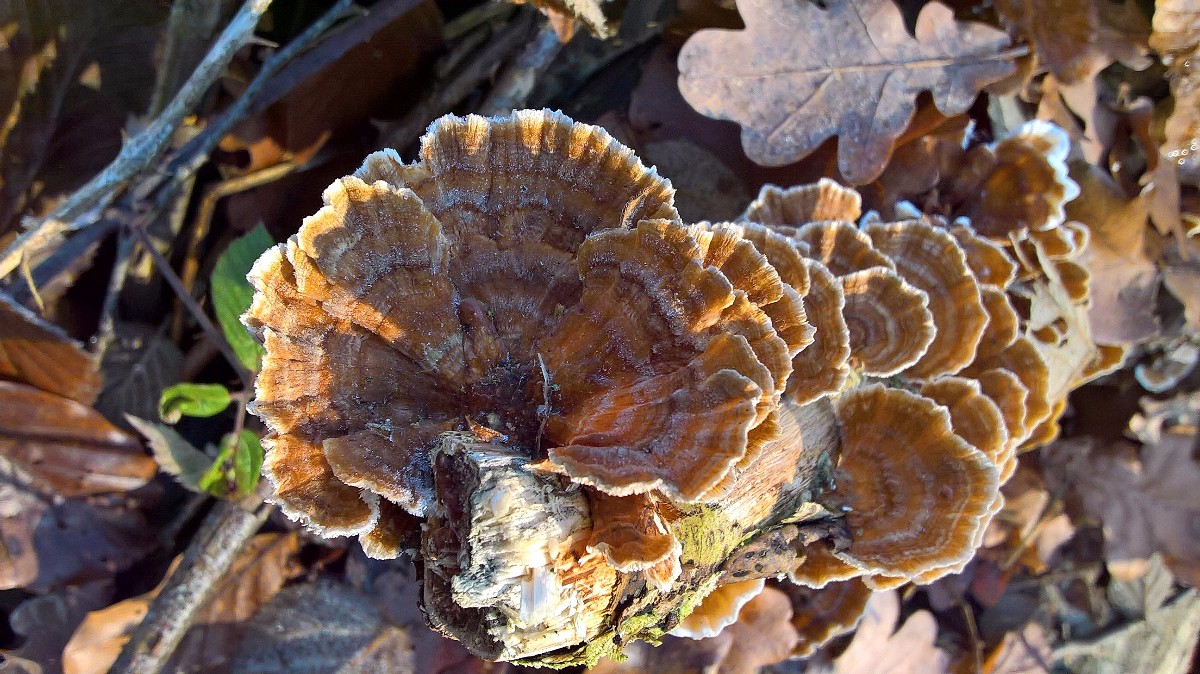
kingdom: Fungi
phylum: Basidiomycota
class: Agaricomycetes
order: Polyporales
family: Polyporaceae
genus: Trametes
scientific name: Trametes versicolor
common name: broget læderporesvamp
